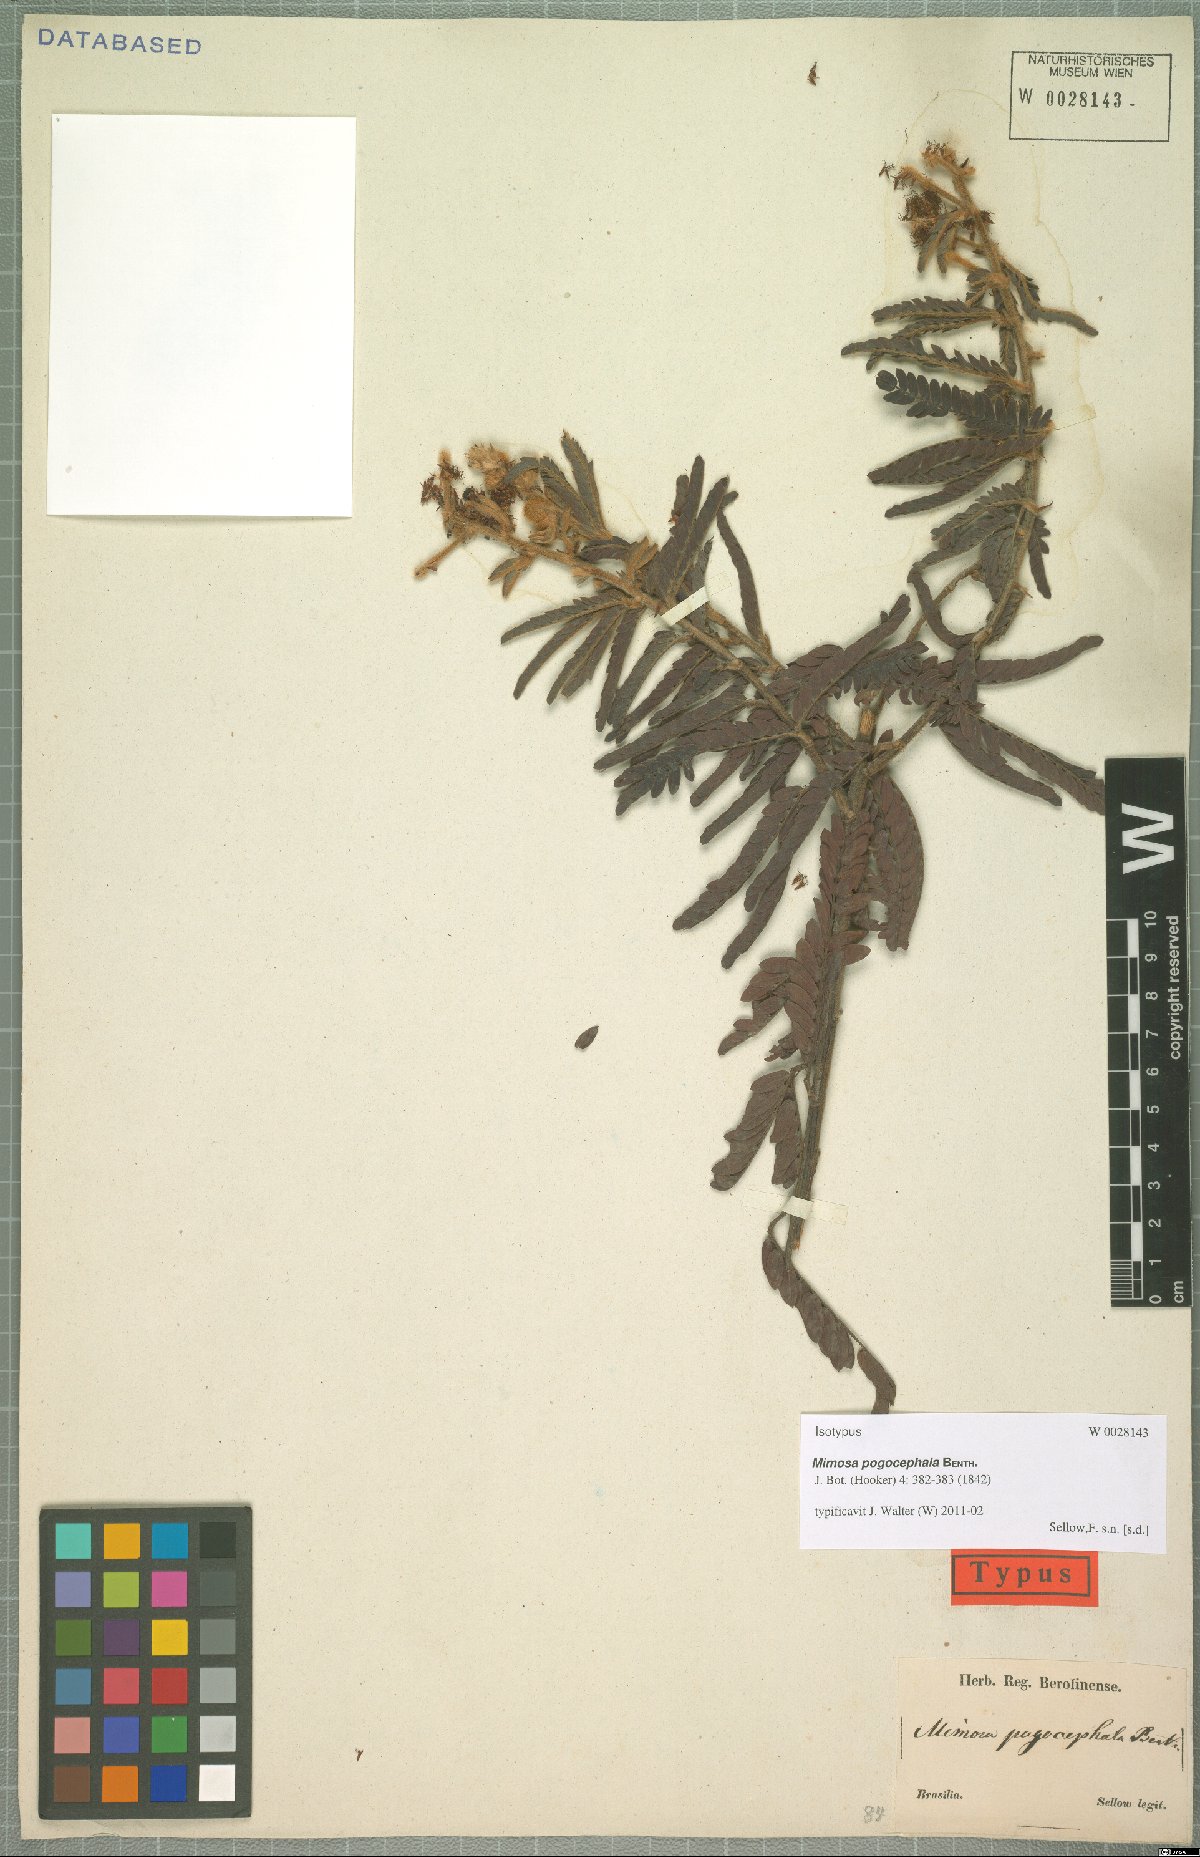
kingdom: Plantae
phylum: Tracheophyta
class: Magnoliopsida
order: Fabales
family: Fabaceae
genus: Mimosa
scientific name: Mimosa pogocephala
